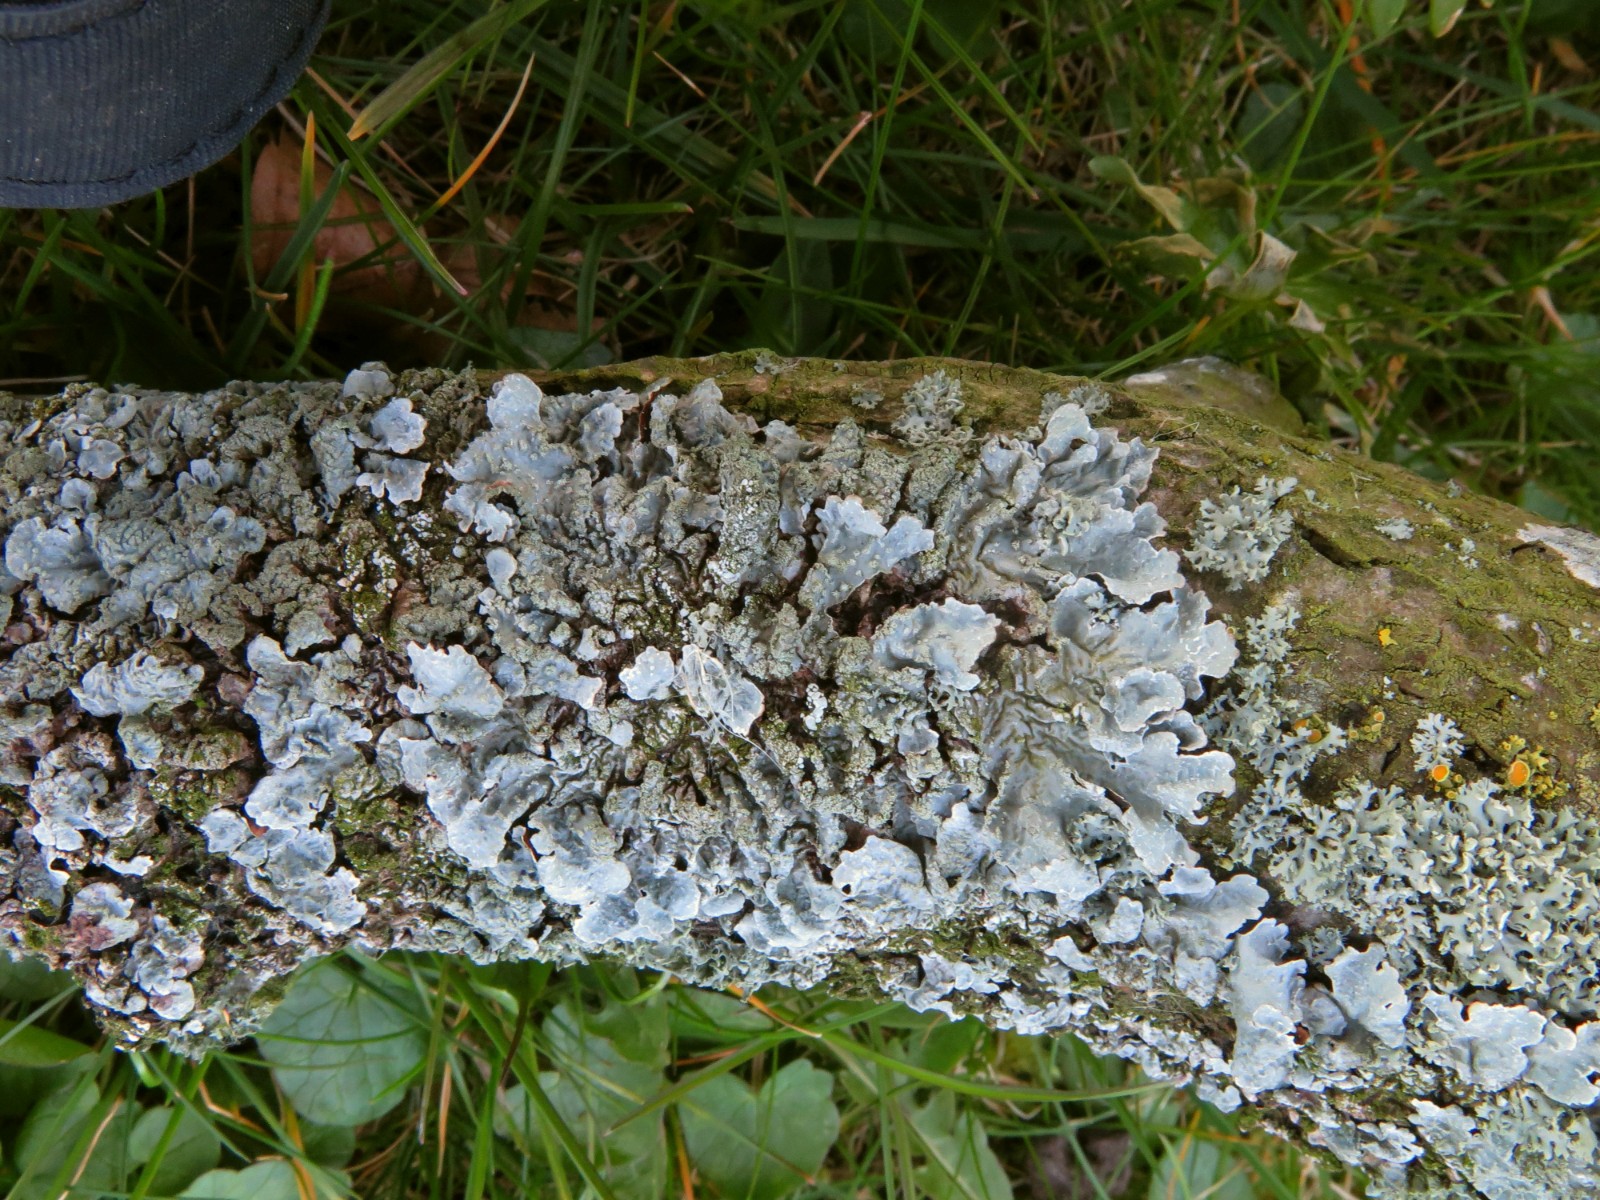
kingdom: Fungi
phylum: Ascomycota
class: Lecanoromycetes
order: Lecanorales
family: Parmeliaceae
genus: Parmelia
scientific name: Parmelia sulcata
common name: rynket skållav
